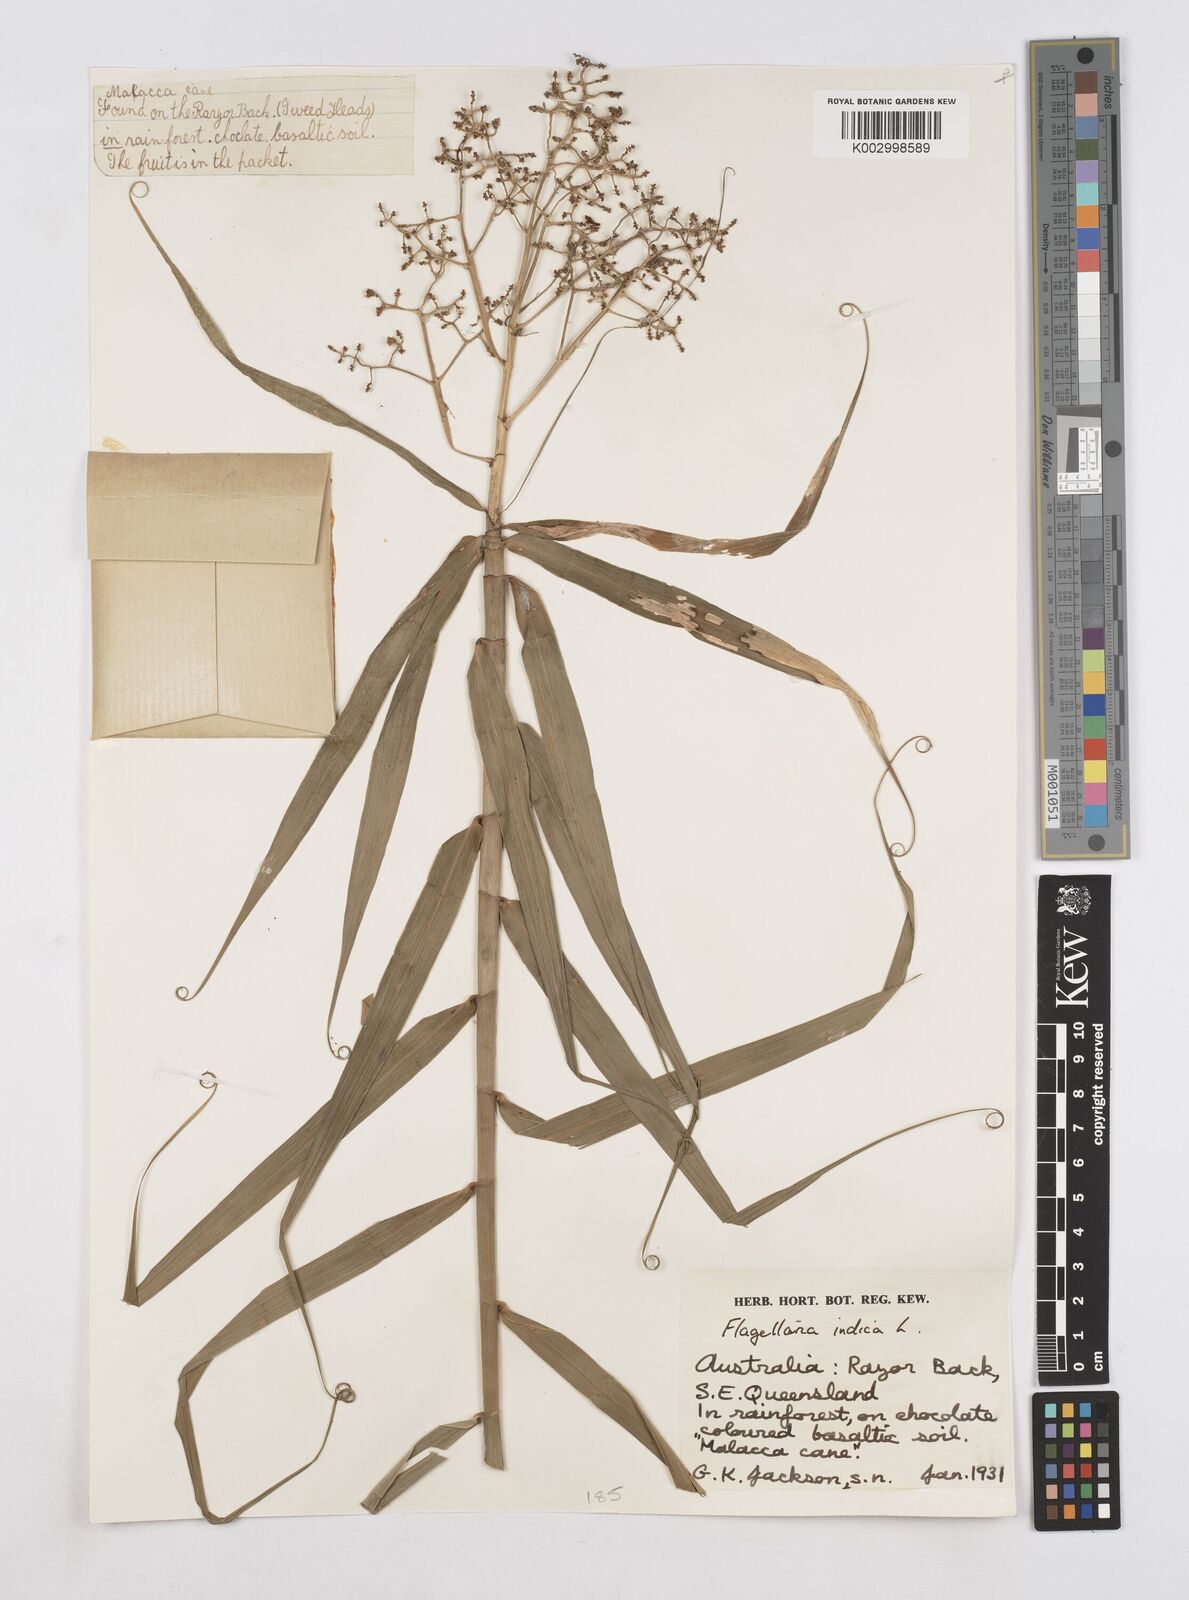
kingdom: Plantae
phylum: Tracheophyta
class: Liliopsida
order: Poales
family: Flagellariaceae
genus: Flagellaria
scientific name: Flagellaria indica
